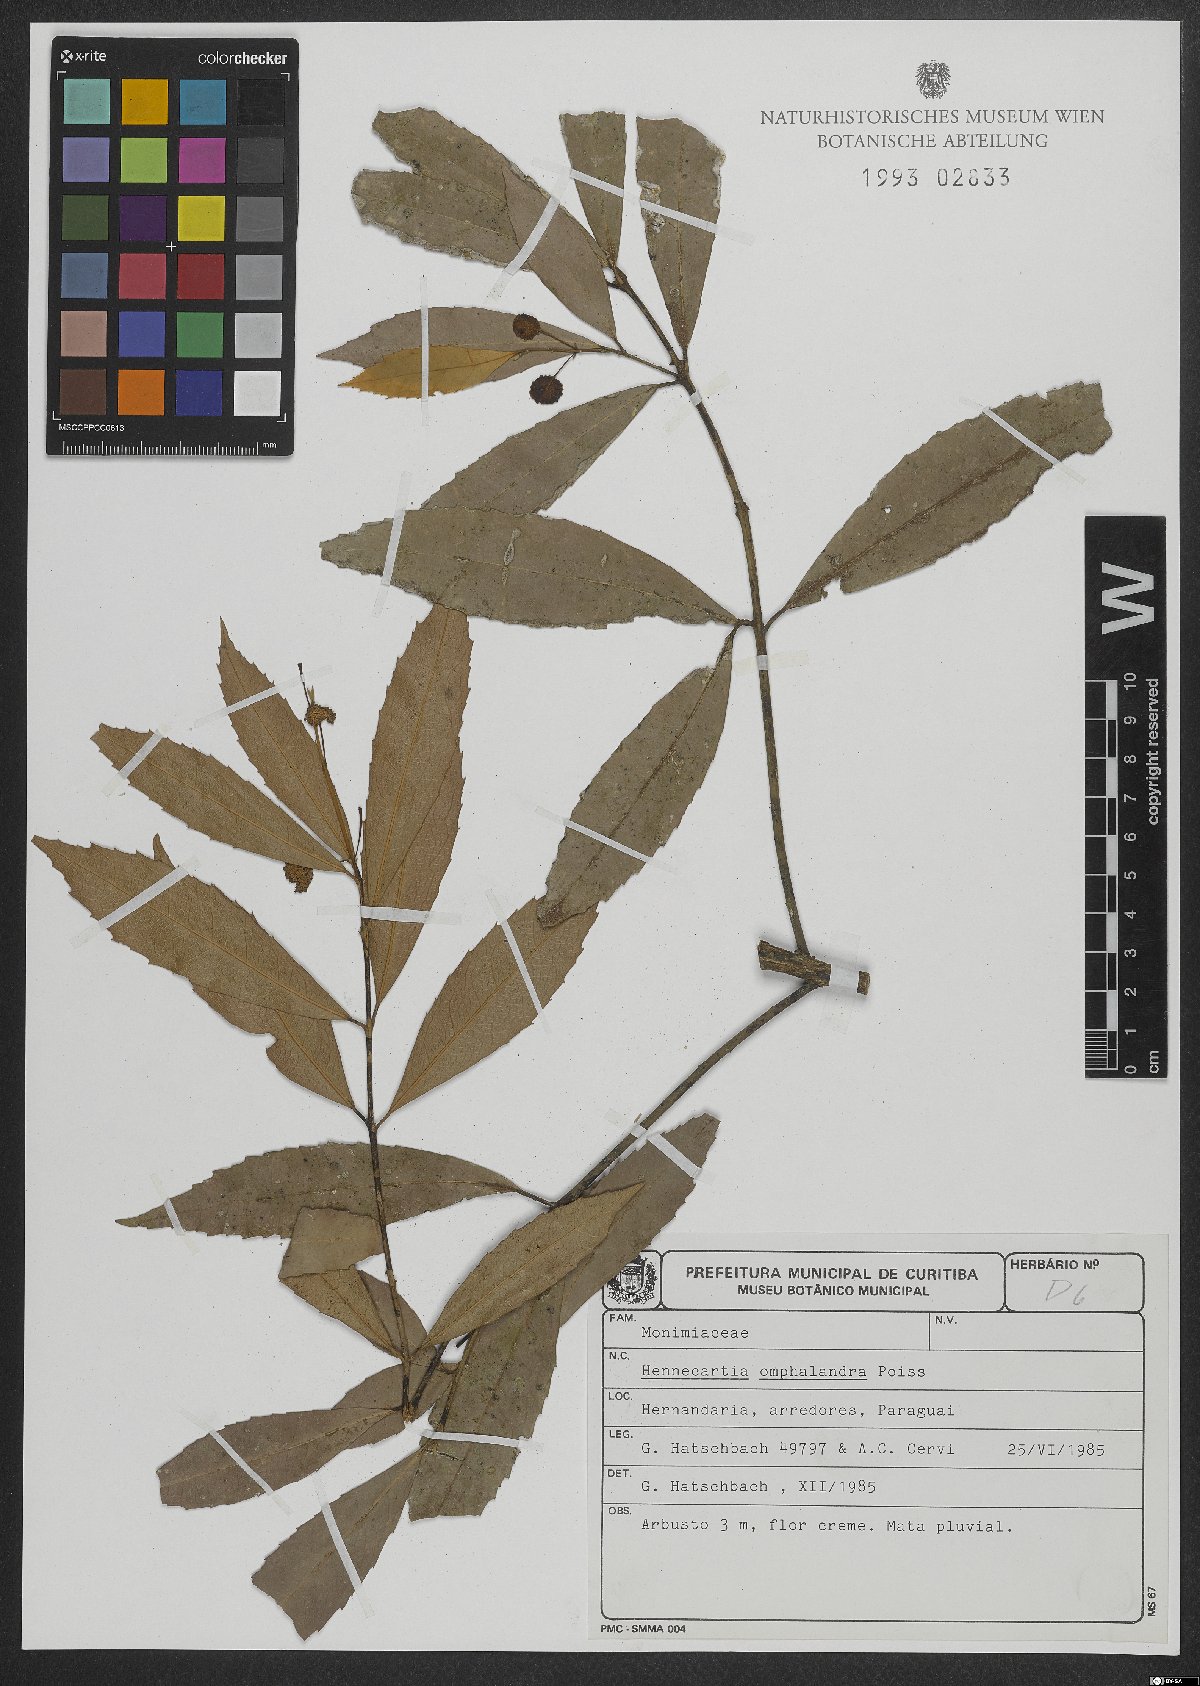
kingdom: Plantae
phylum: Tracheophyta
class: Magnoliopsida
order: Laurales
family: Monimiaceae
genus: Hennecartia
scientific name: Hennecartia omphalandra
